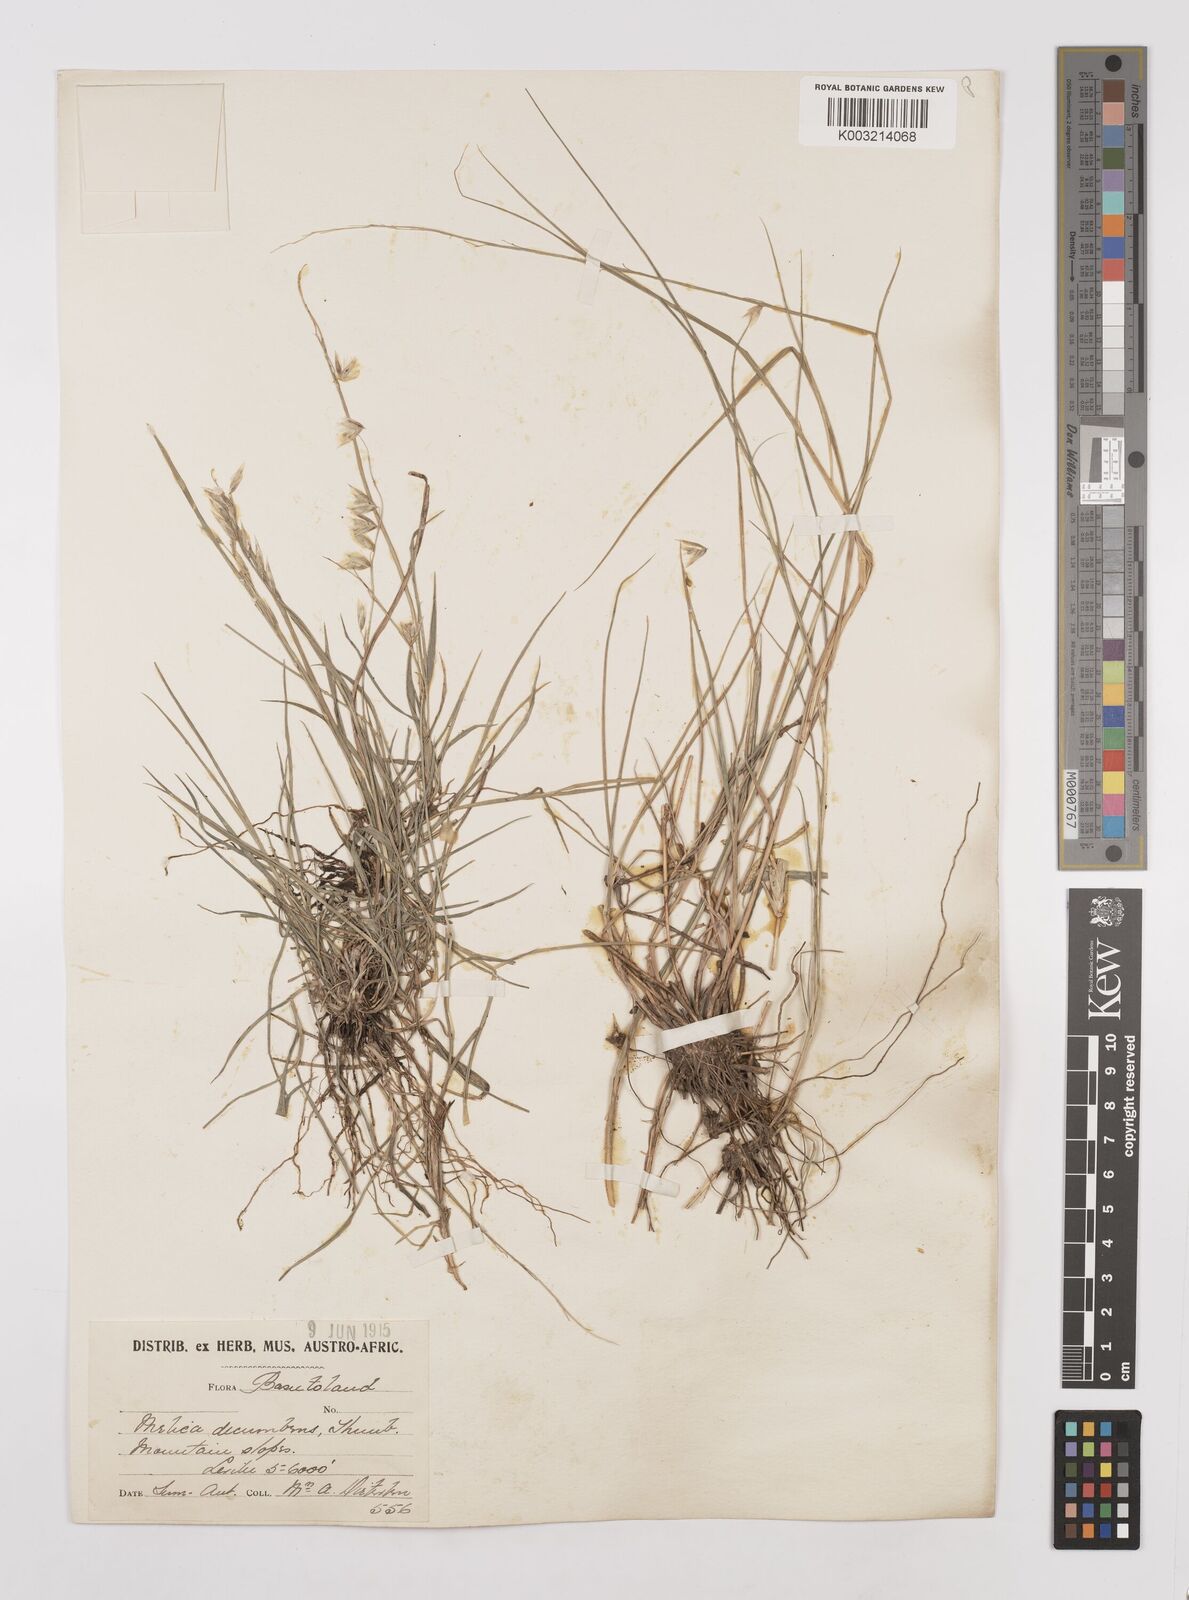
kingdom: Plantae
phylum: Tracheophyta
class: Liliopsida
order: Poales
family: Poaceae
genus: Melica
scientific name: Melica dendroides
